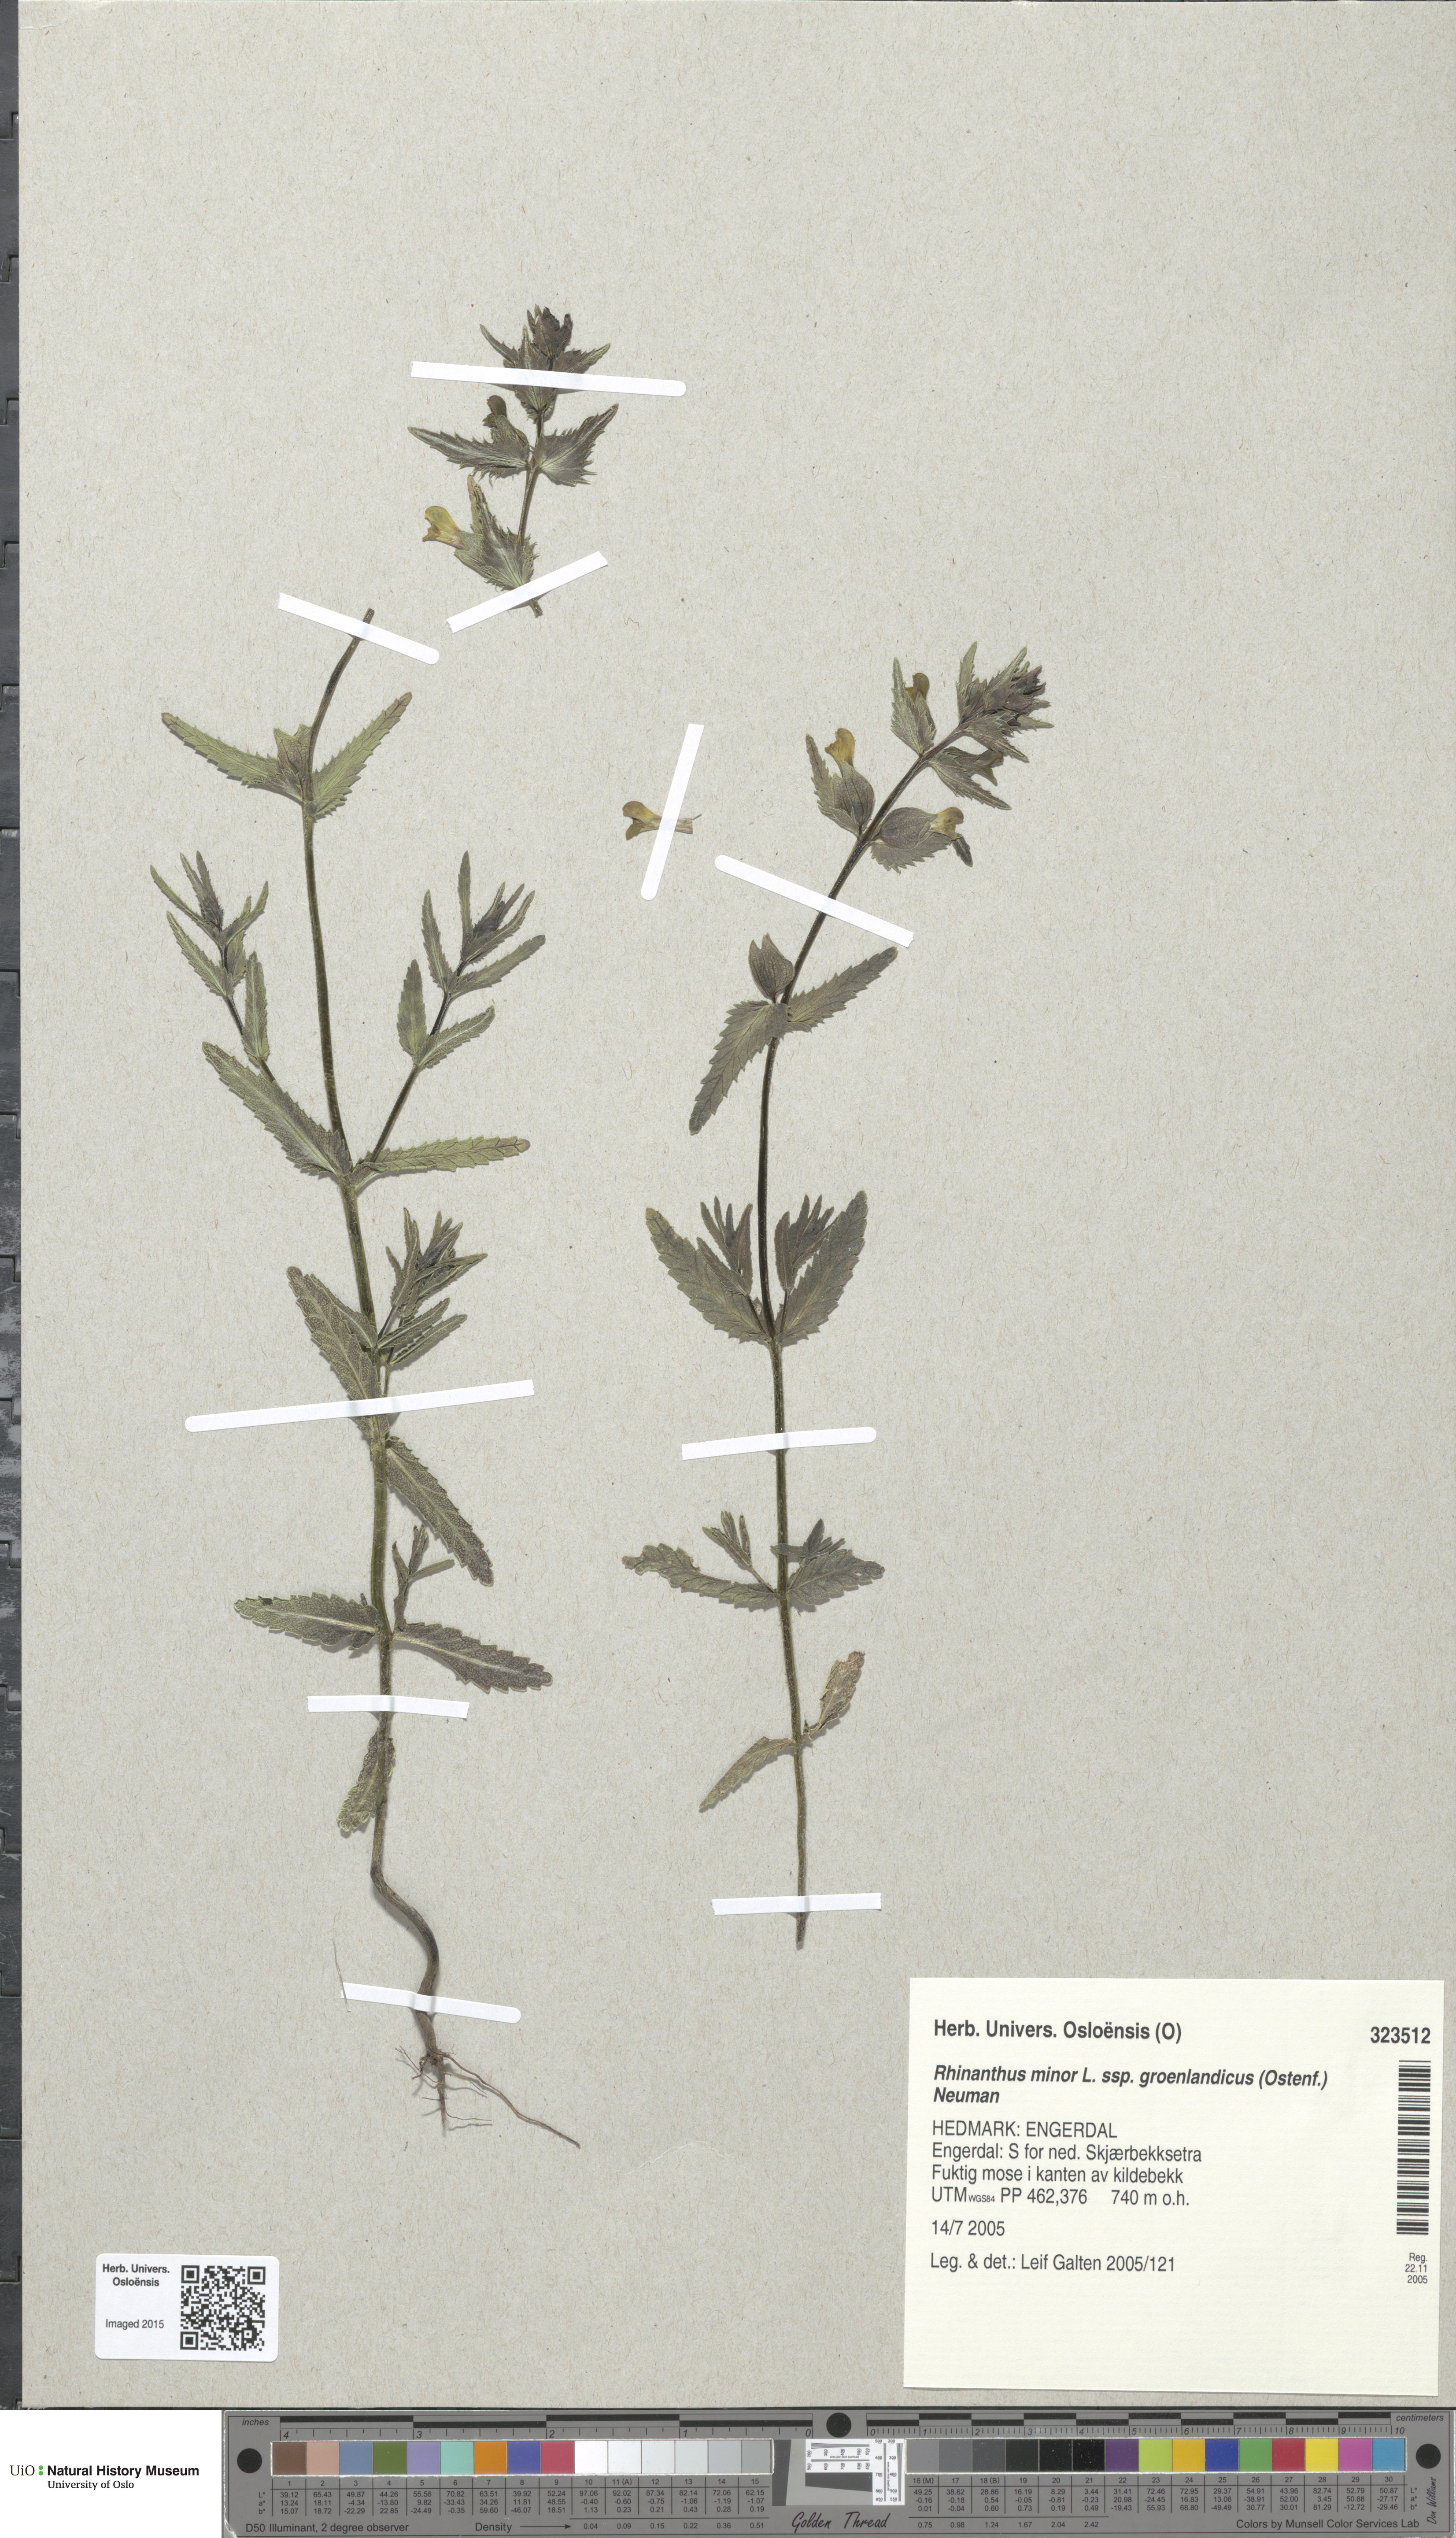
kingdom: Plantae
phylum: Tracheophyta
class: Magnoliopsida
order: Lamiales
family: Orobanchaceae
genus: Rhinanthus
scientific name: Rhinanthus groenlandicus
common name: Little yellow rattle
